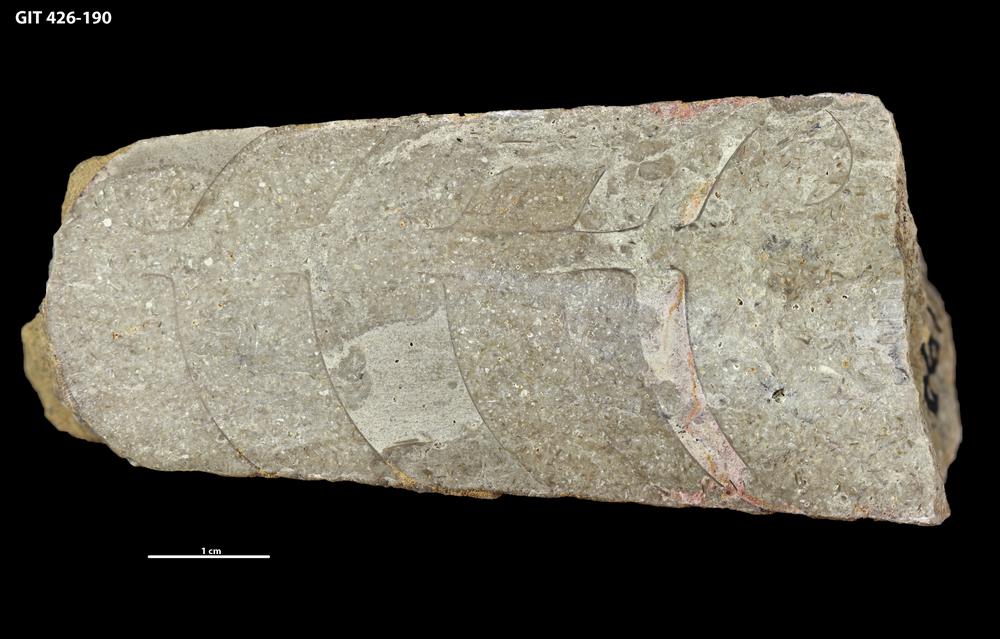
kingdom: Animalia
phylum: Mollusca
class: Cephalopoda
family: Lituitidae
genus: Lituites
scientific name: Lituites lituus
